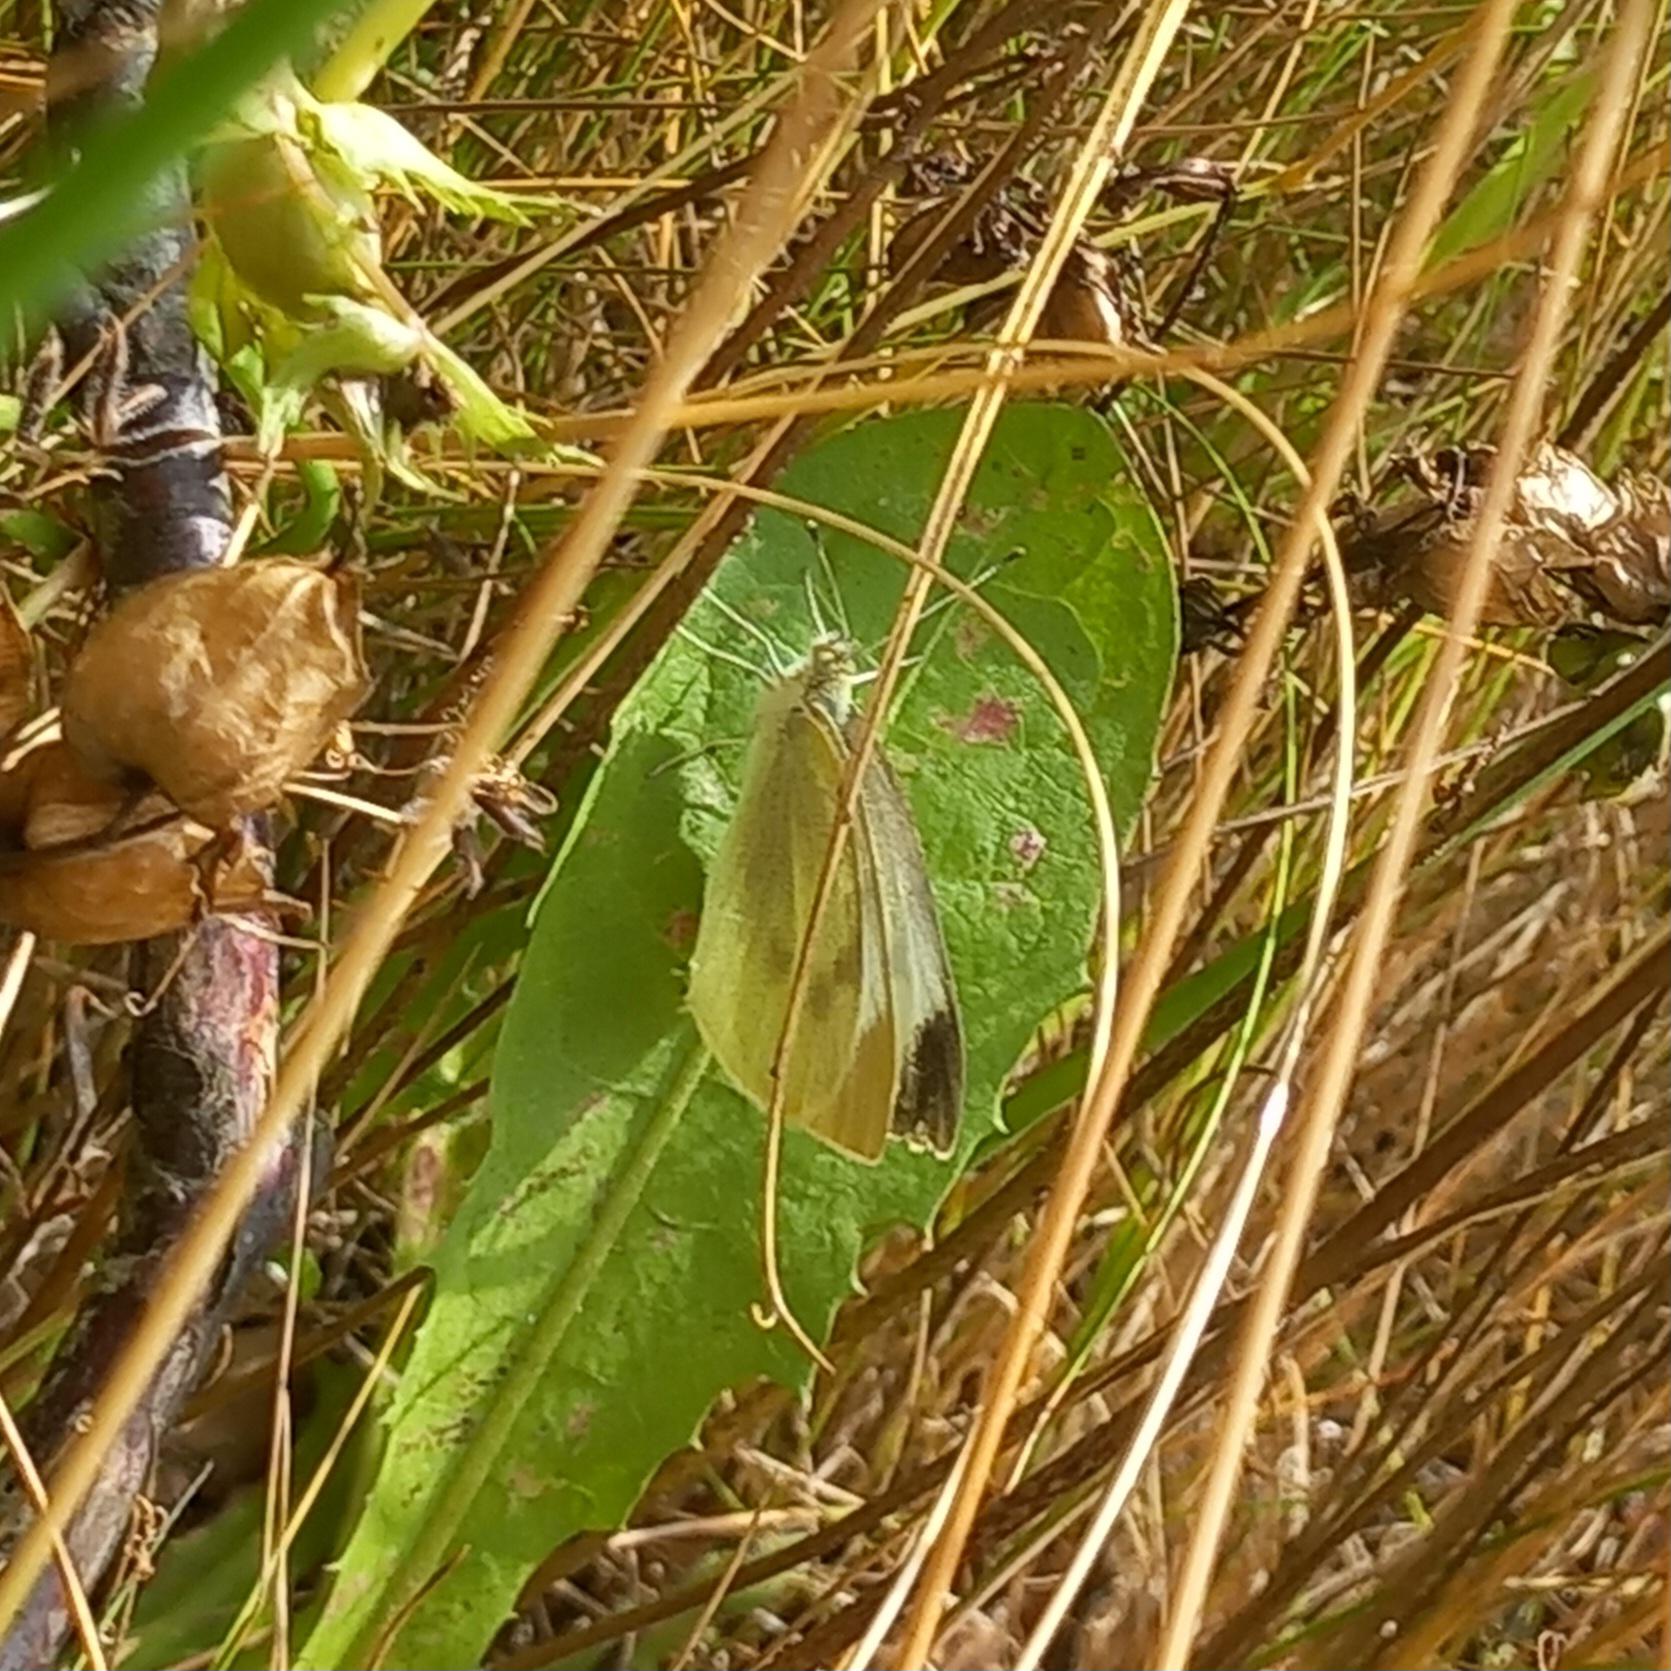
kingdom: Animalia
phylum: Arthropoda
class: Insecta
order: Lepidoptera
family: Pieridae
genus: Pieris
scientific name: Pieris brassicae
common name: Stor kålsommerfugl
